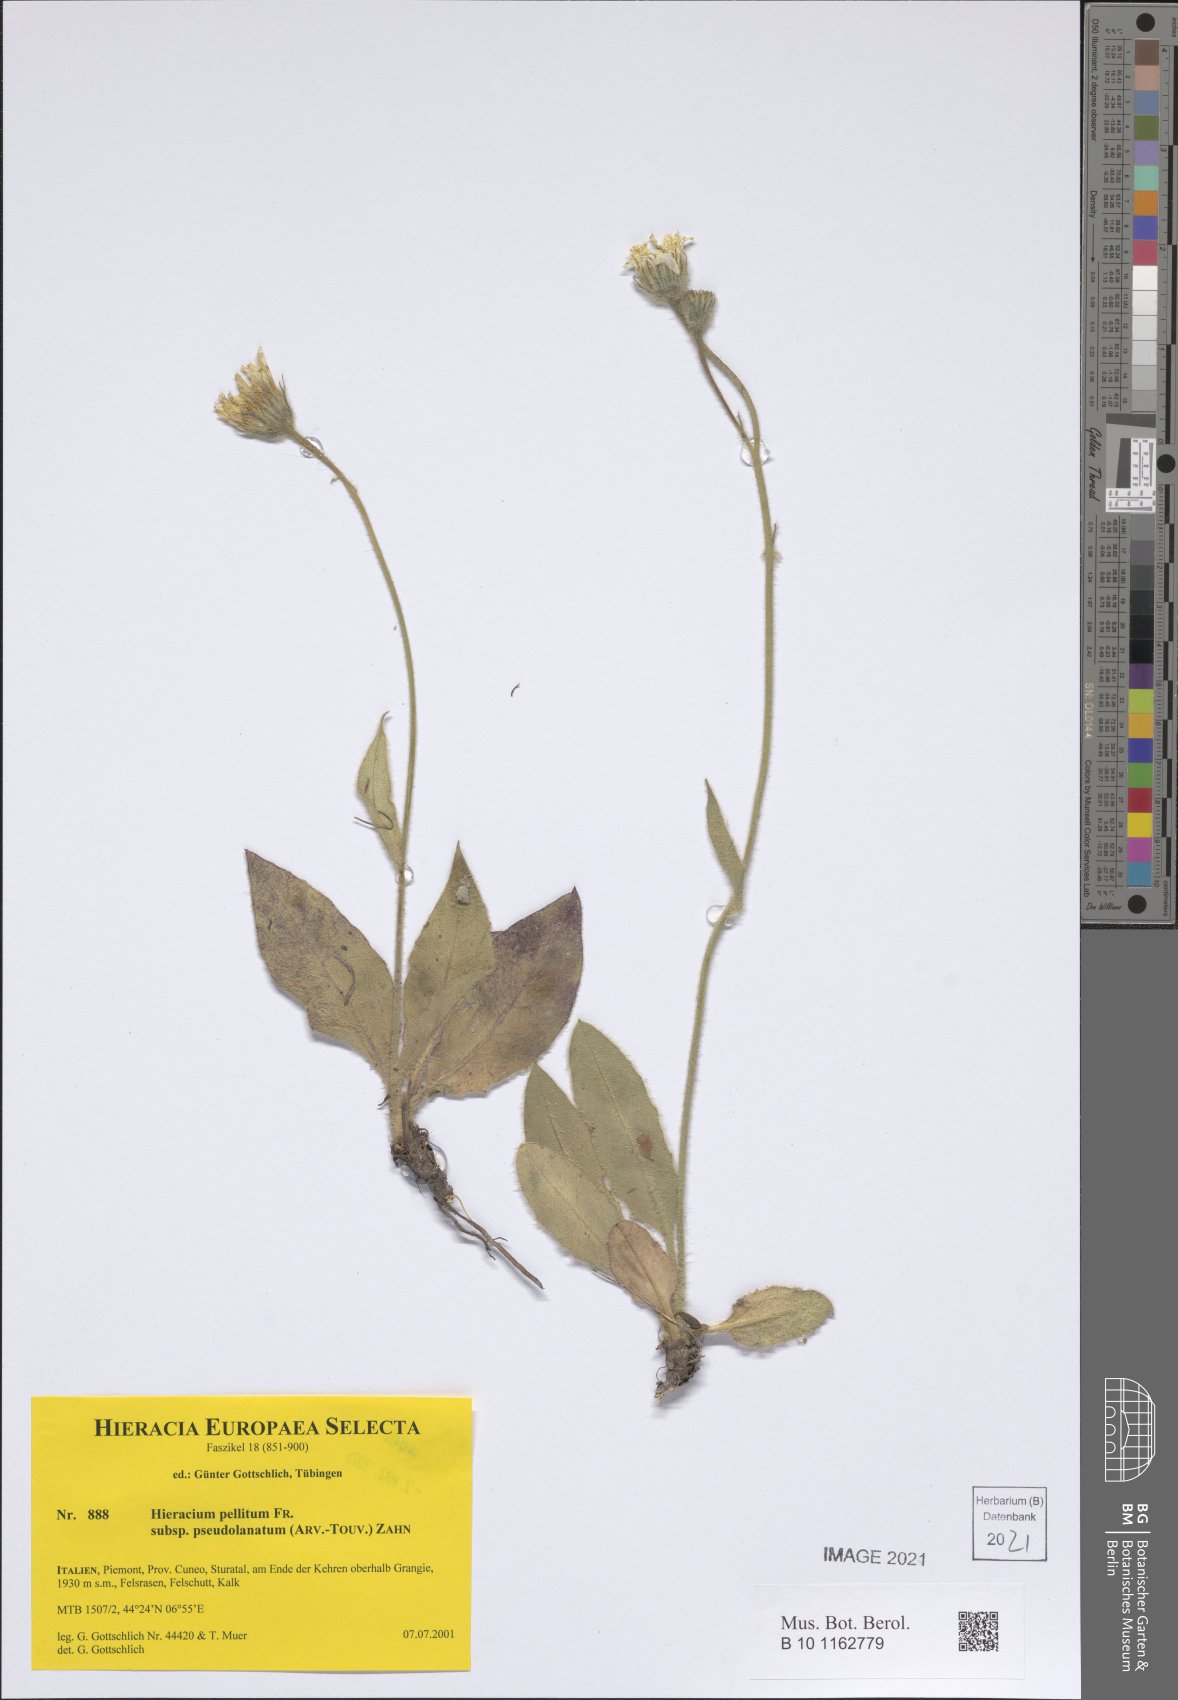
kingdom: Plantae
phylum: Tracheophyta
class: Magnoliopsida
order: Asterales
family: Asteraceae
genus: Hieracium
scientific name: Hieracium pellitum
